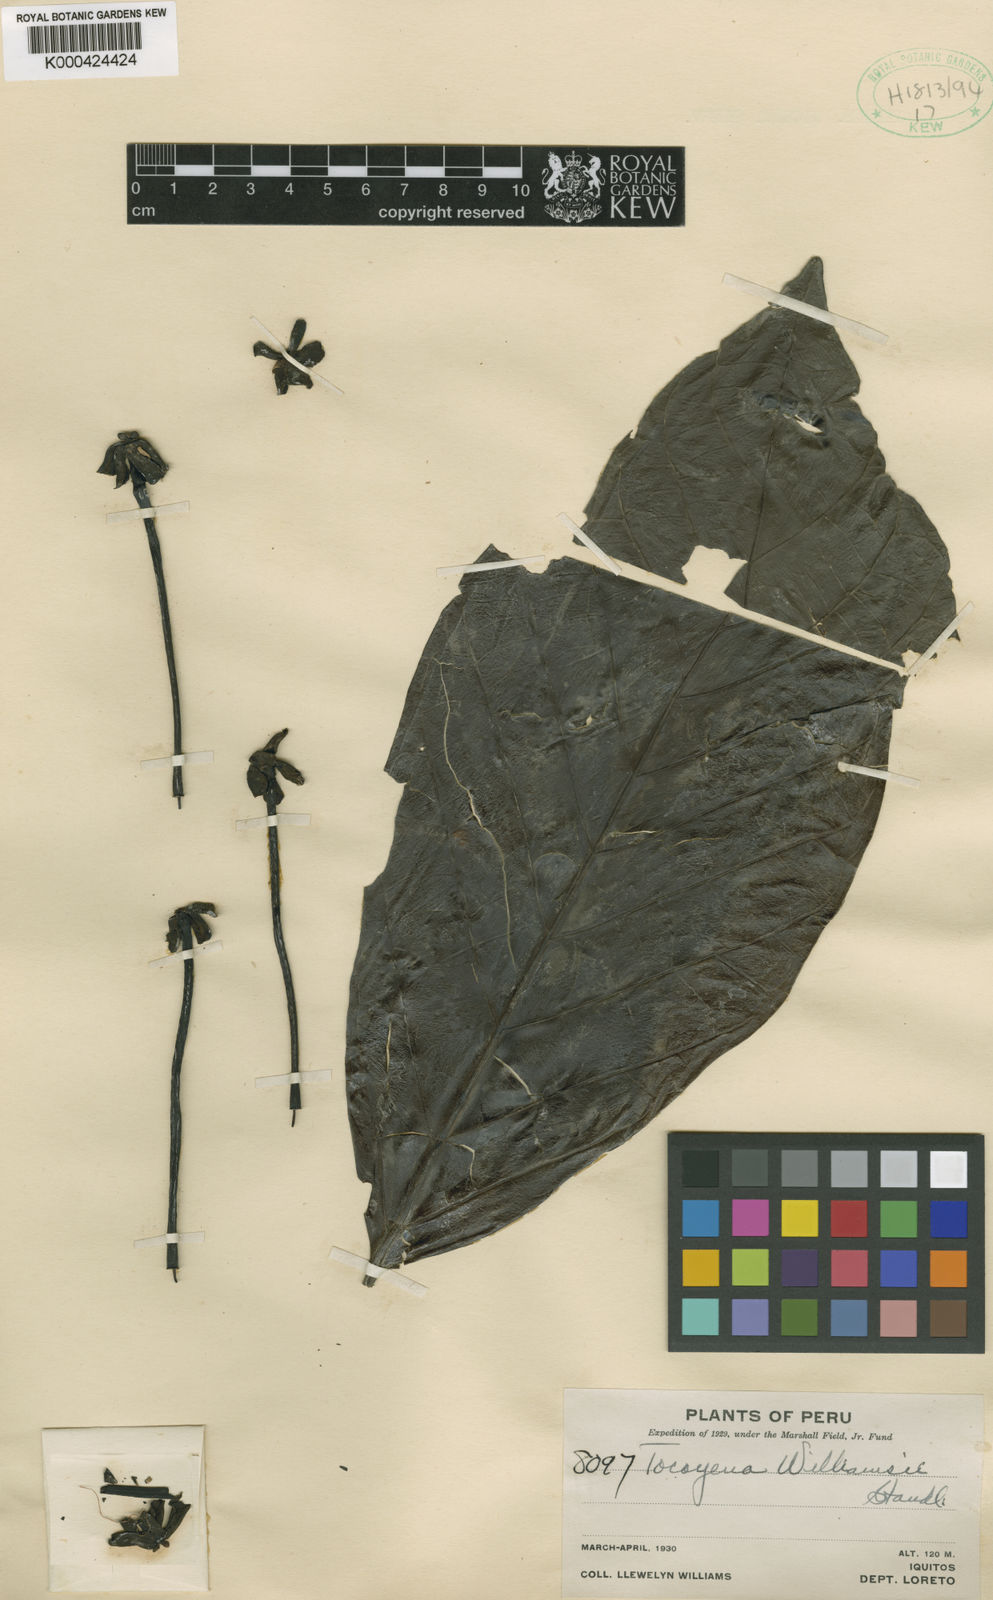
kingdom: Plantae
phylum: Tracheophyta
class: Magnoliopsida
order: Gentianales
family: Rubiaceae
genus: Tocoyena
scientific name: Tocoyena pittieri
